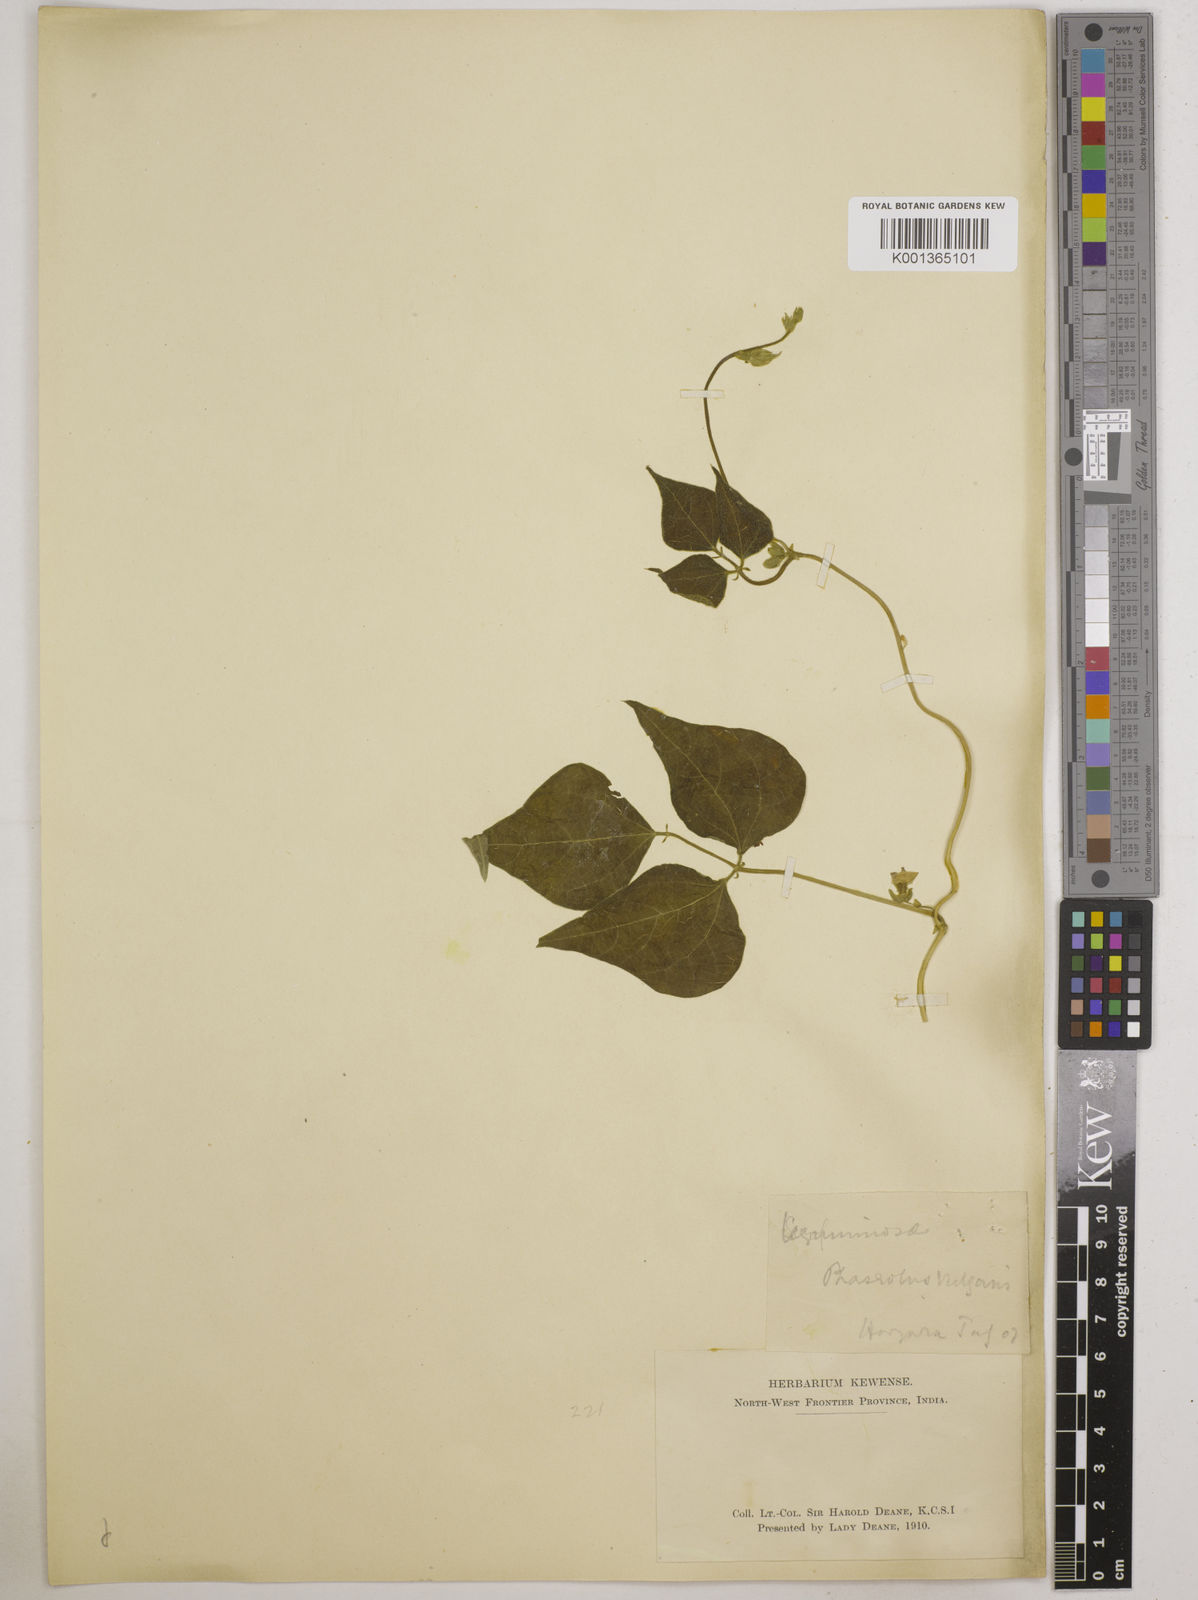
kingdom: Plantae
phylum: Tracheophyta
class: Magnoliopsida
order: Fabales
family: Fabaceae
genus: Phaseolus
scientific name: Phaseolus vulgaris
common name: Bean
